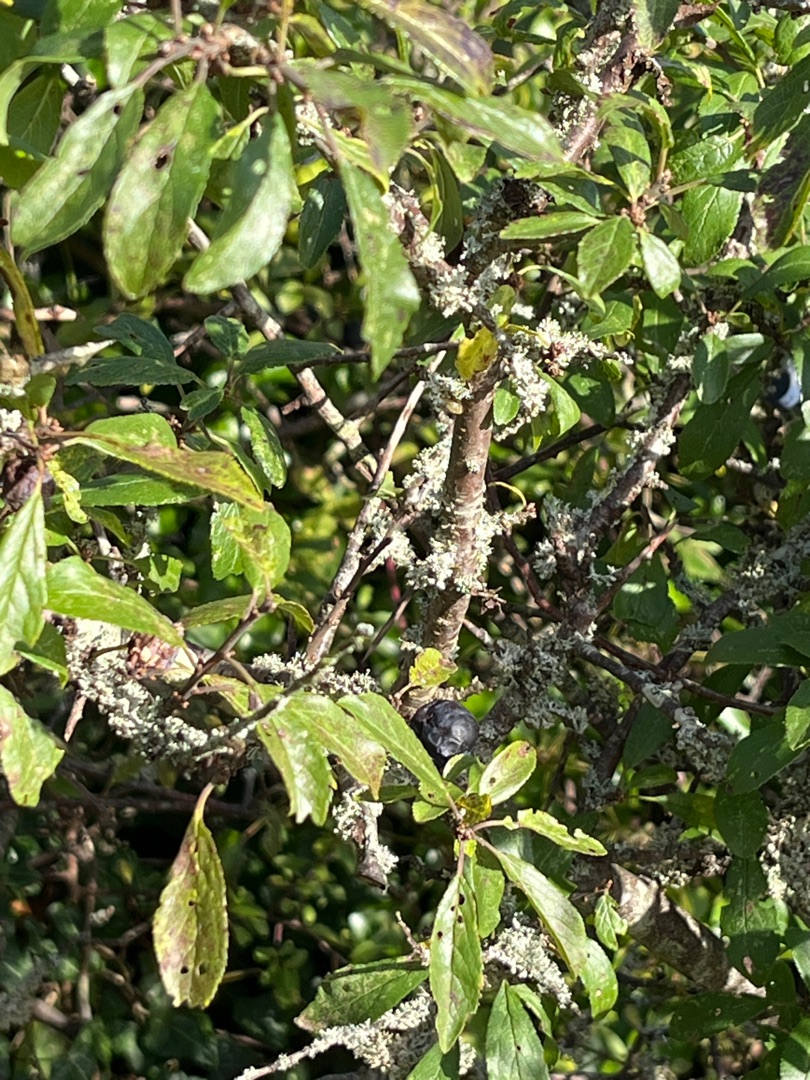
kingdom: Plantae
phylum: Tracheophyta
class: Magnoliopsida
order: Rosales
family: Rosaceae
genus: Prunus
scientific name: Prunus spinosa
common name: Slåen
